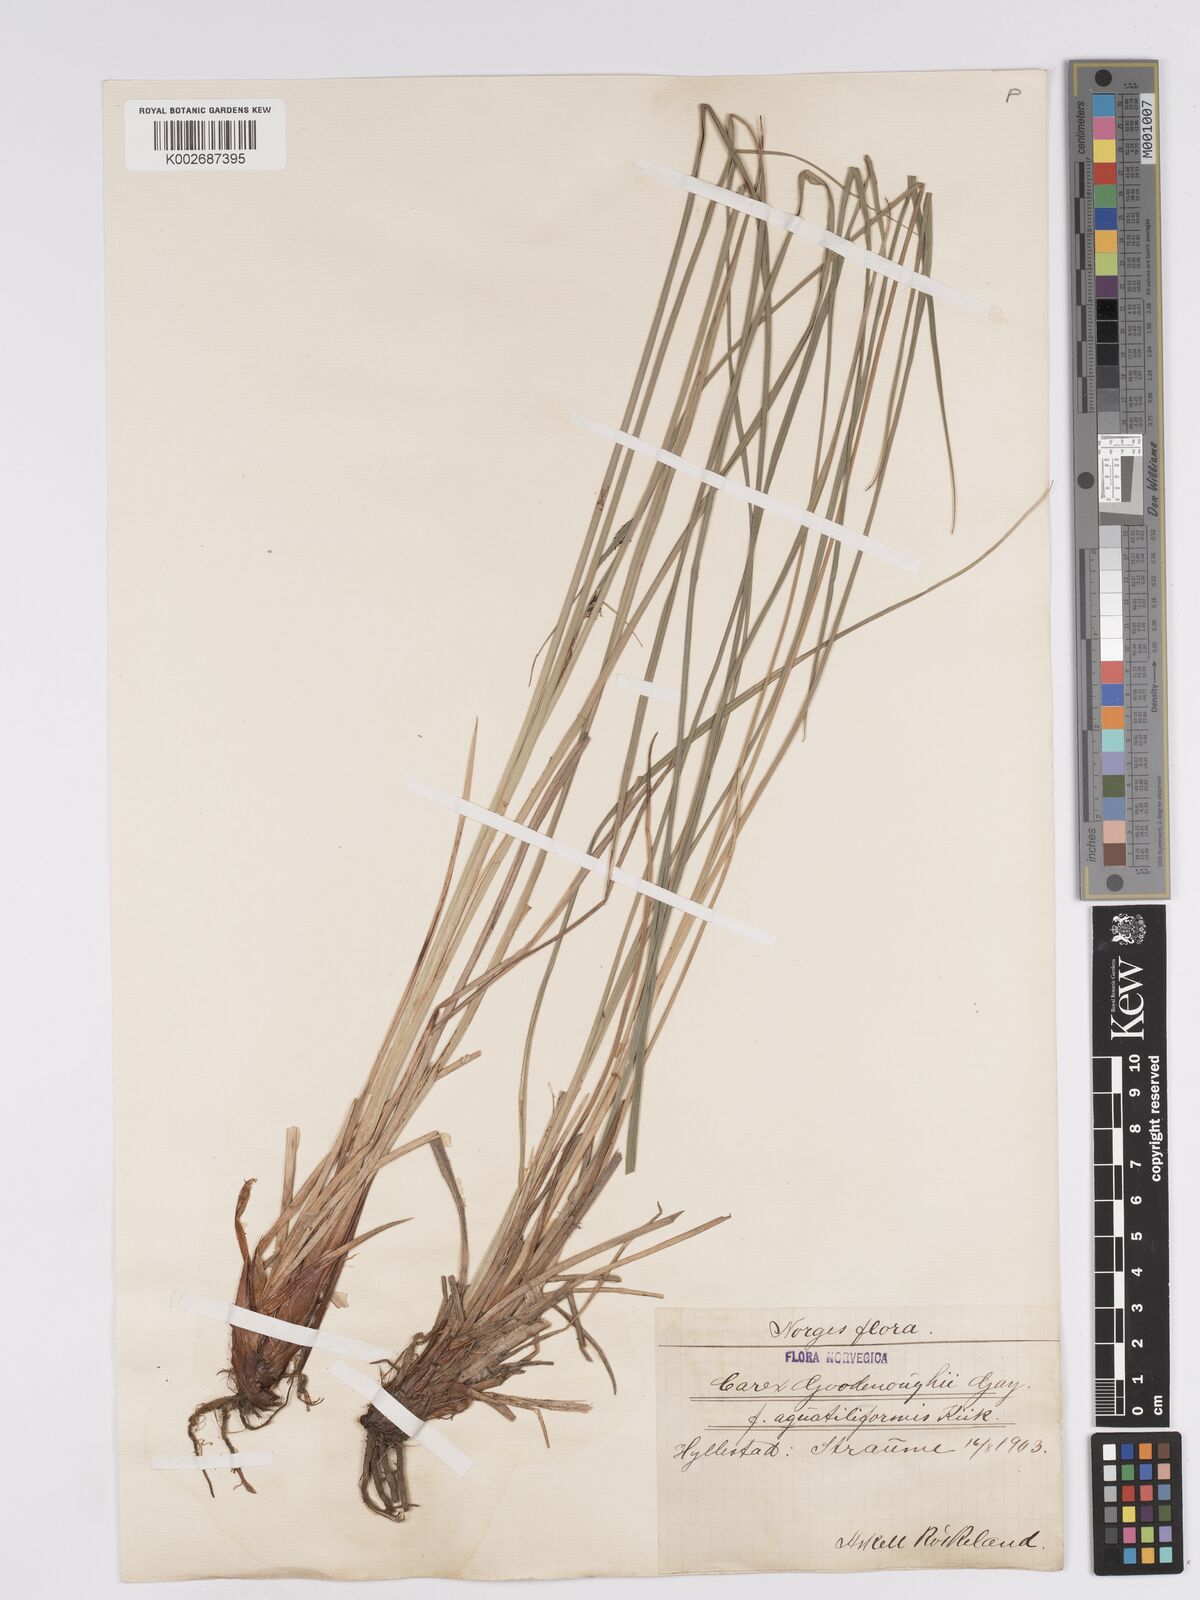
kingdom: Plantae
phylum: Tracheophyta
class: Liliopsida
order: Poales
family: Cyperaceae
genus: Carex
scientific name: Carex nigra
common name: Common sedge
